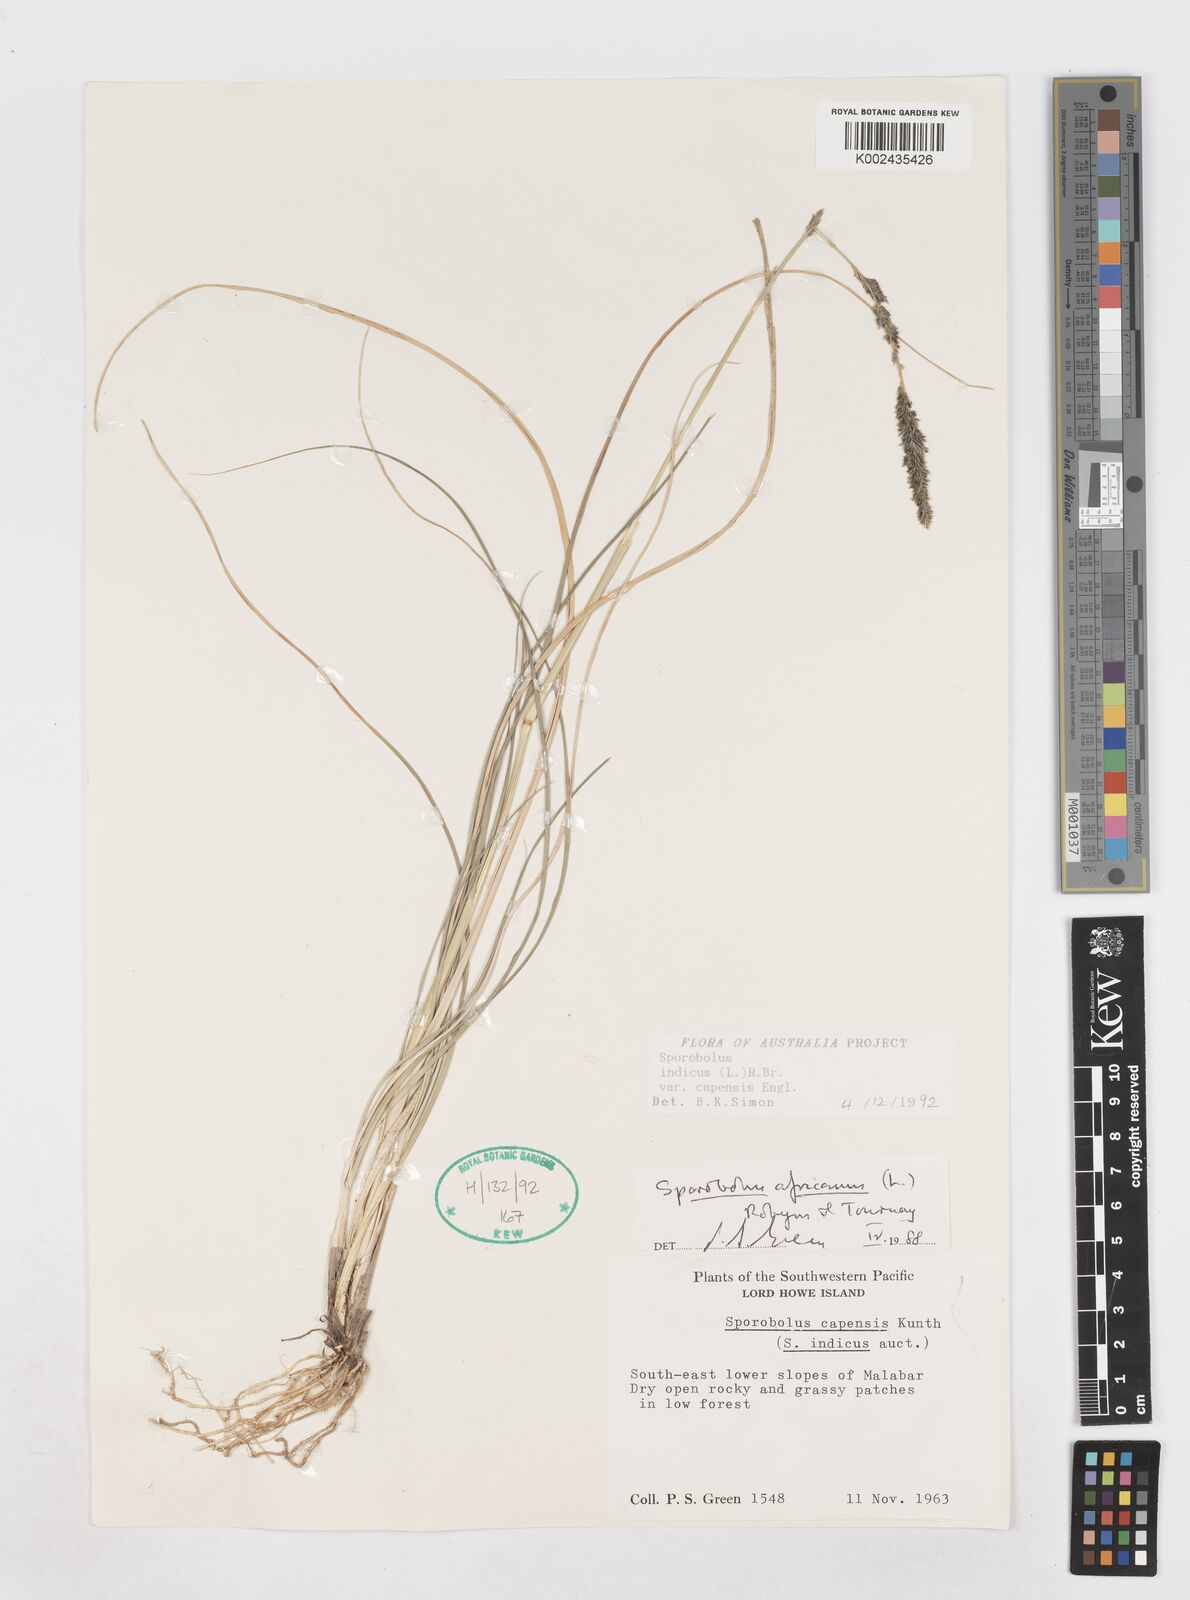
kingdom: Plantae
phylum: Tracheophyta
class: Liliopsida
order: Poales
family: Poaceae
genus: Sporobolus
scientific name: Sporobolus africanus
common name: African dropseed
